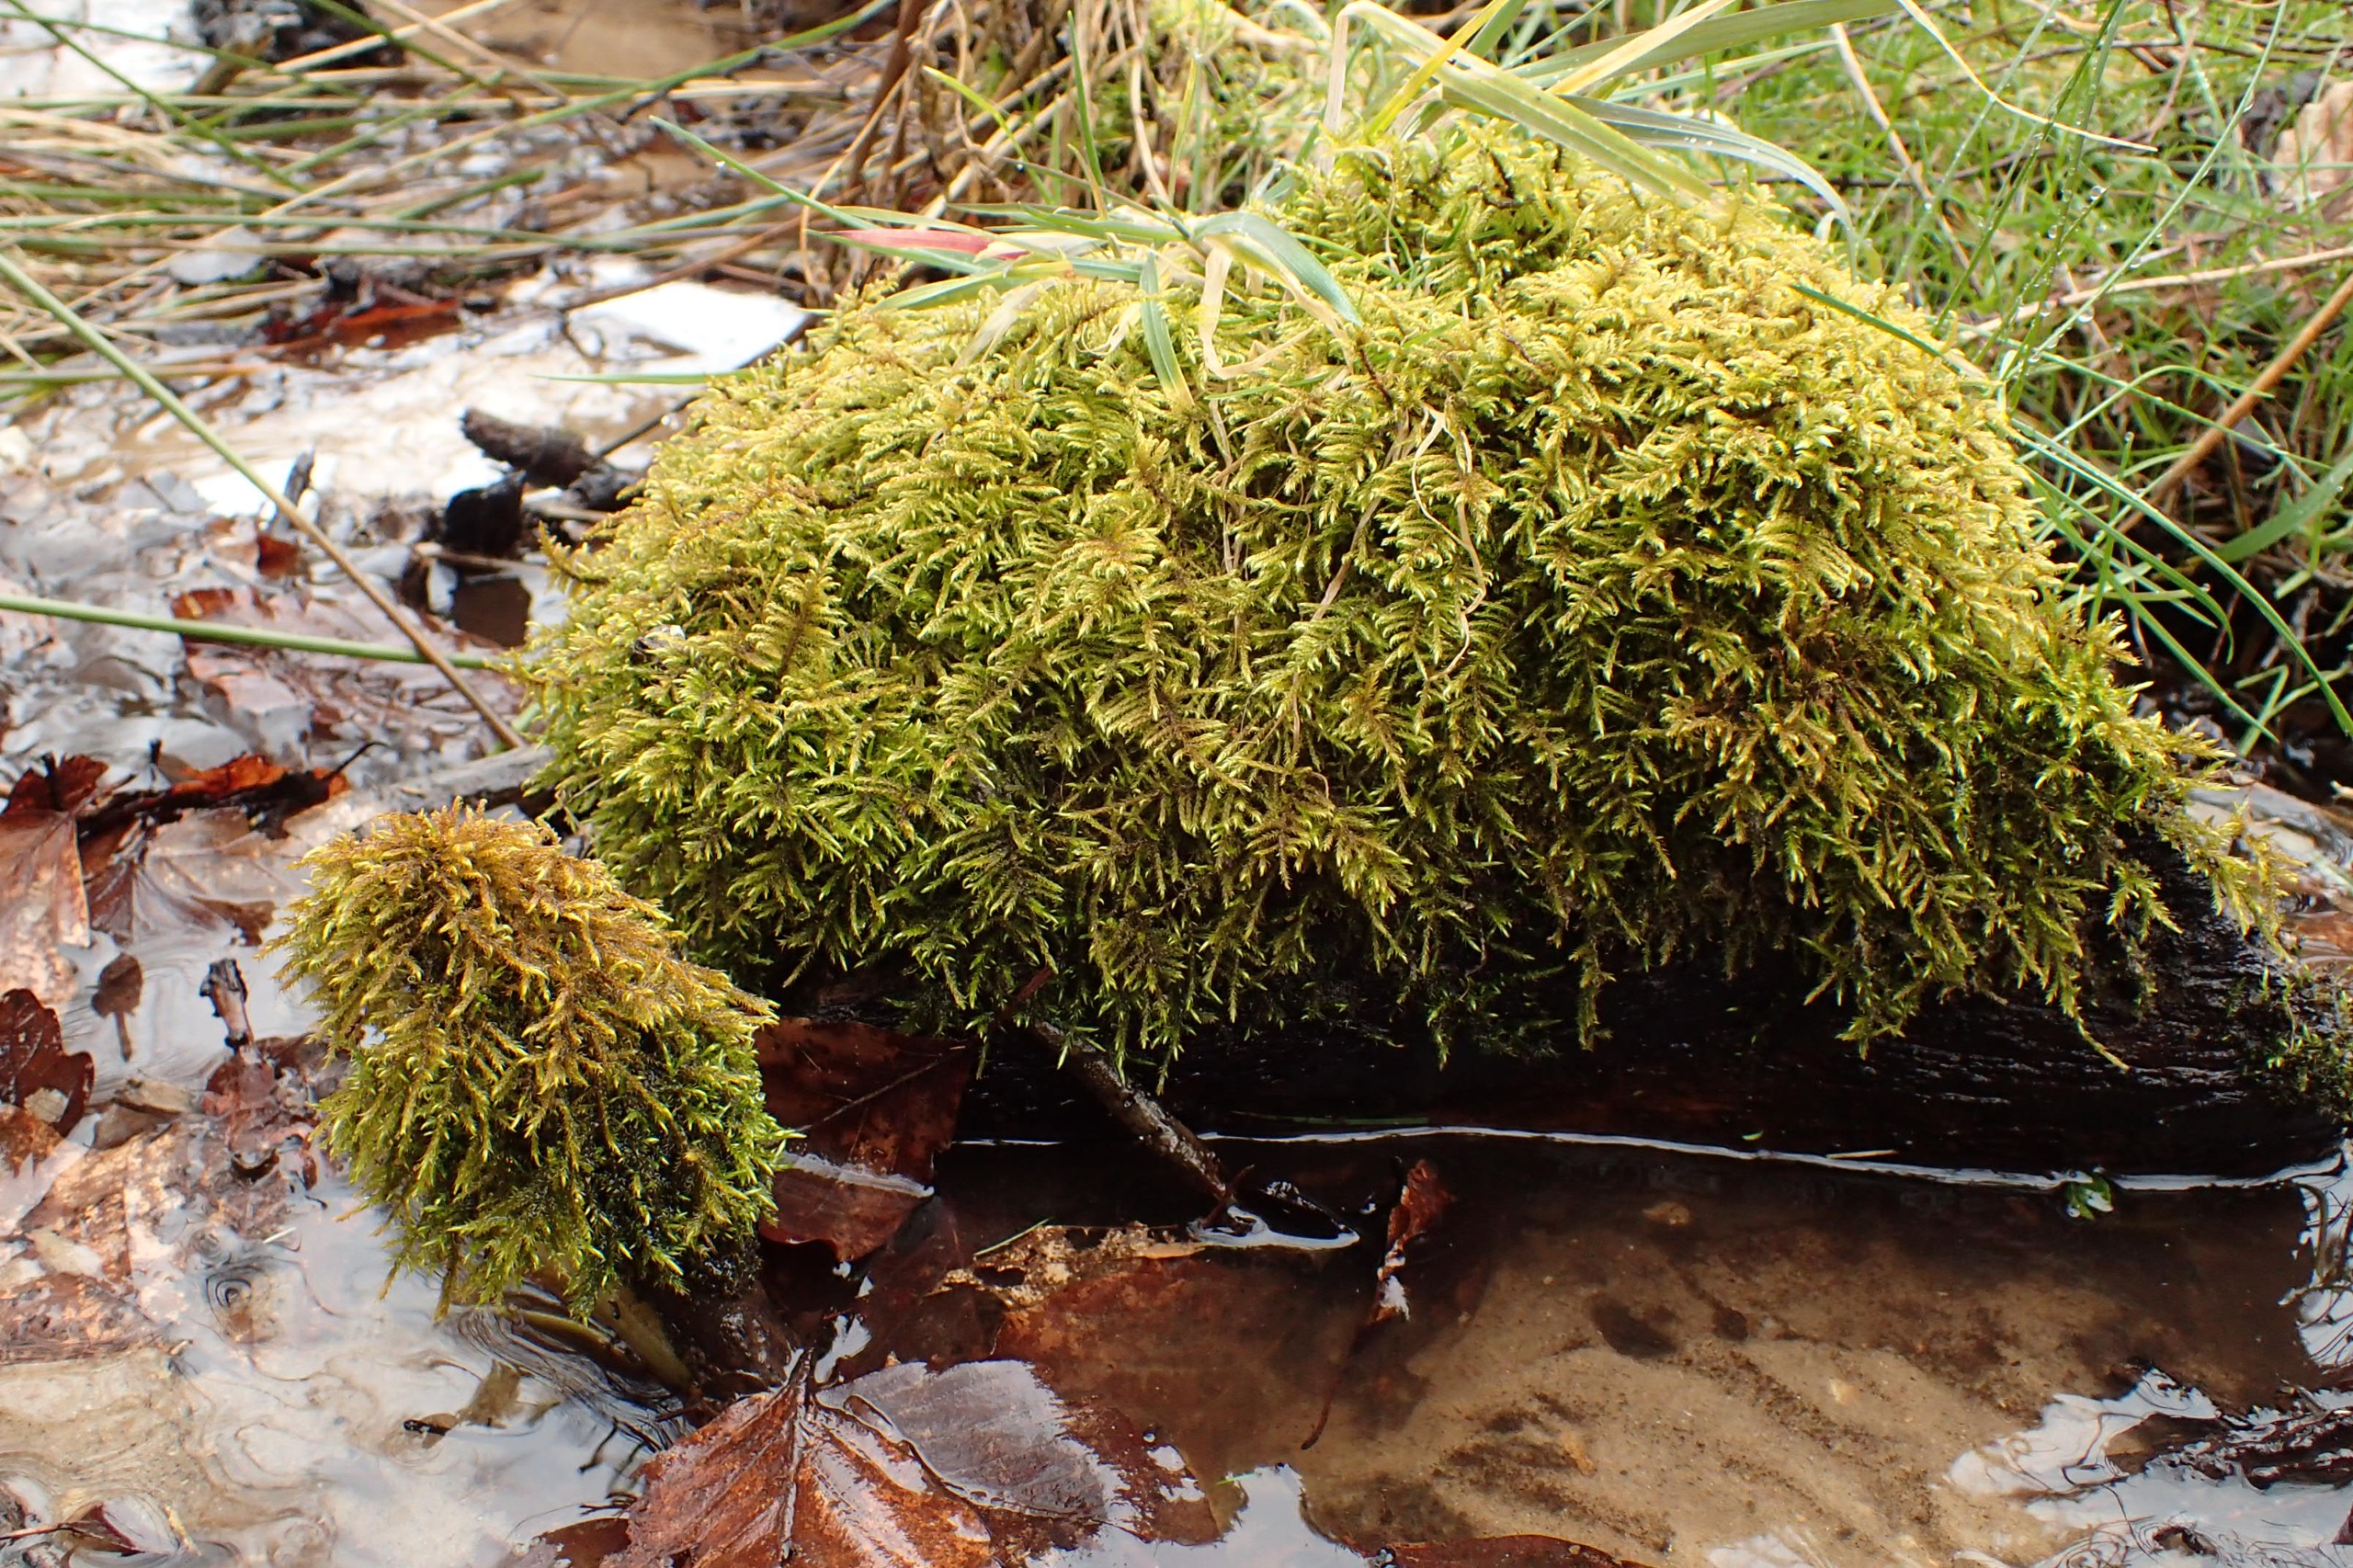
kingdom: Plantae
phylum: Bryophyta
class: Bryopsida
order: Hypnales
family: Amblystegiaceae
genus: Cratoneuron
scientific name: Cratoneuron filicinum
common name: Grøn eremitmos
